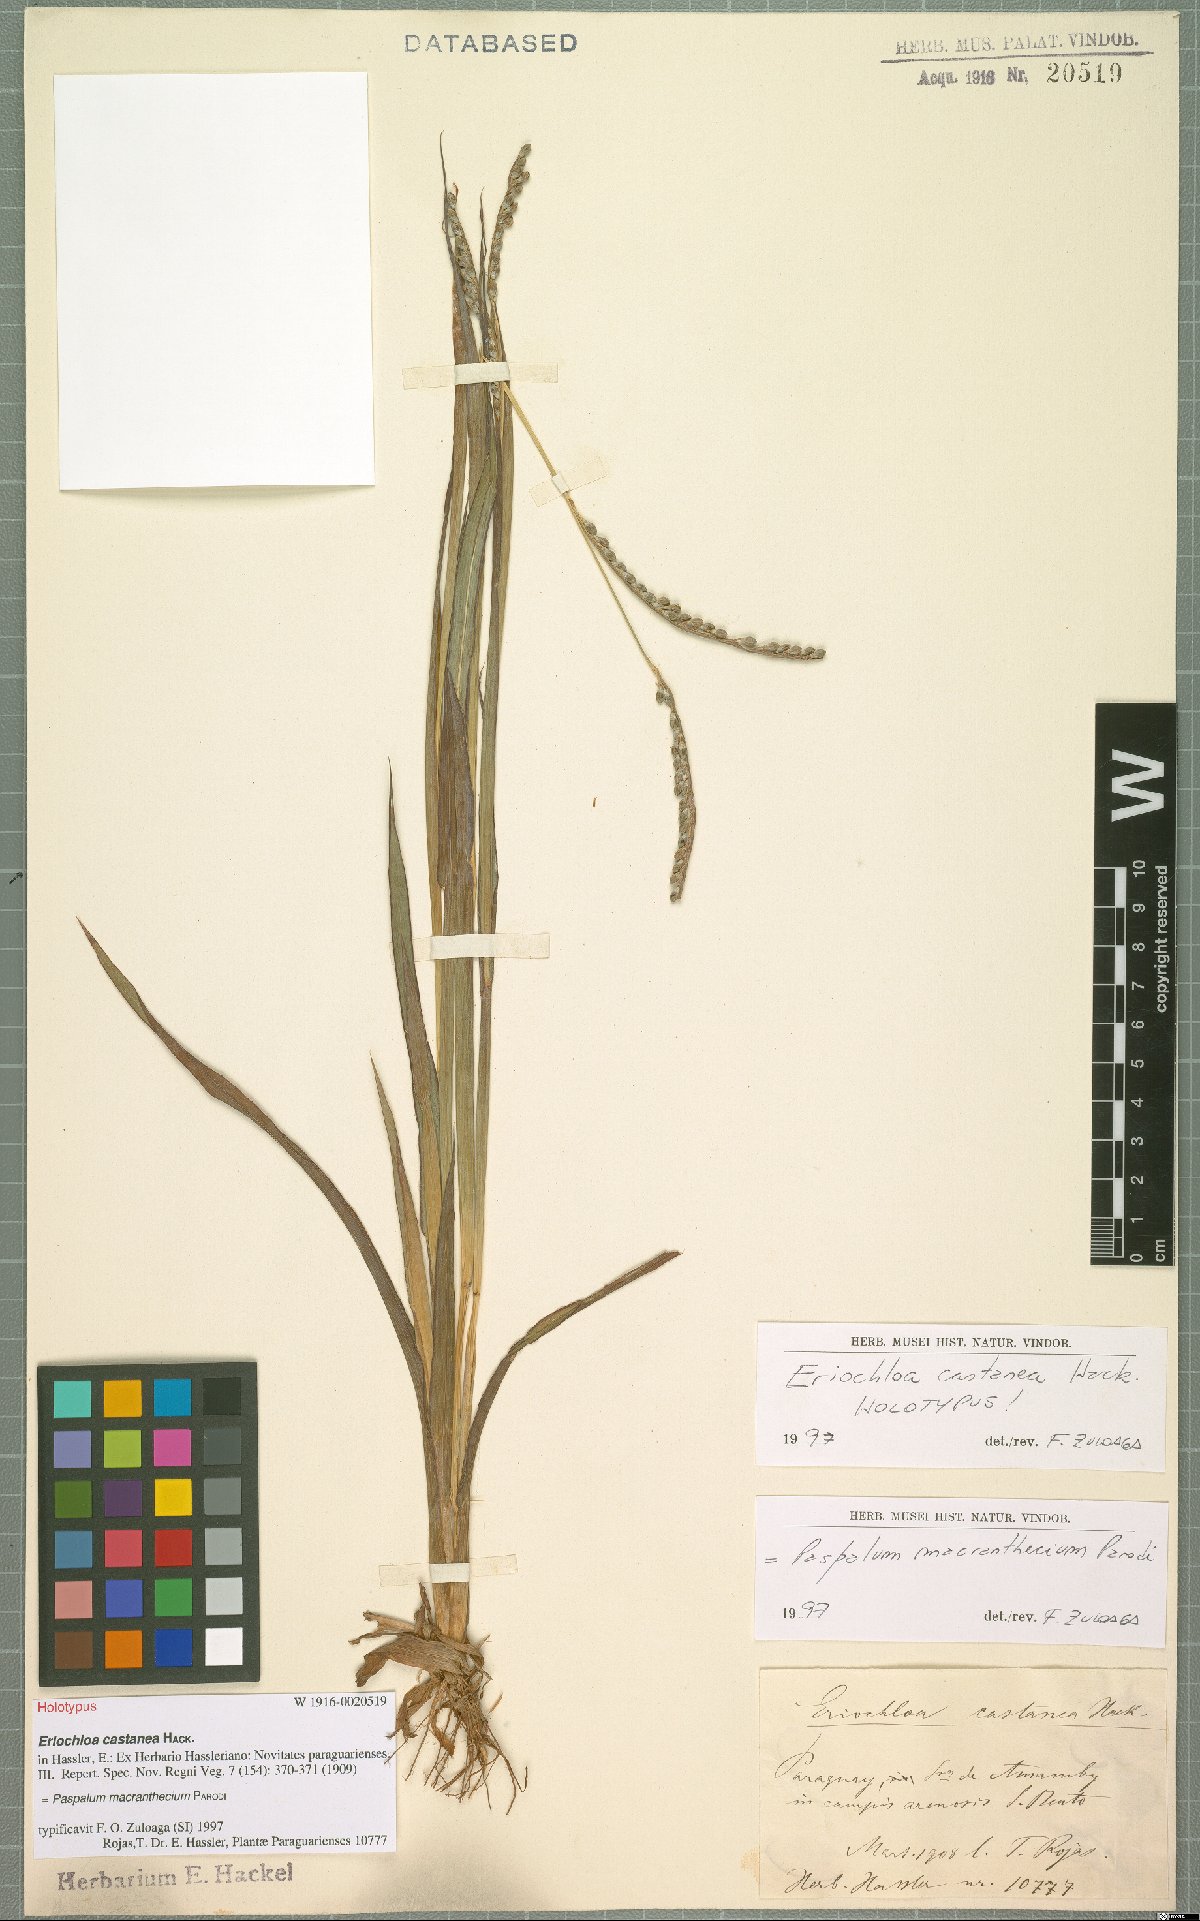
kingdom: Plantae
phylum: Tracheophyta
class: Liliopsida
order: Poales
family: Poaceae
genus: Paspalum
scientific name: Paspalum macranthecium
